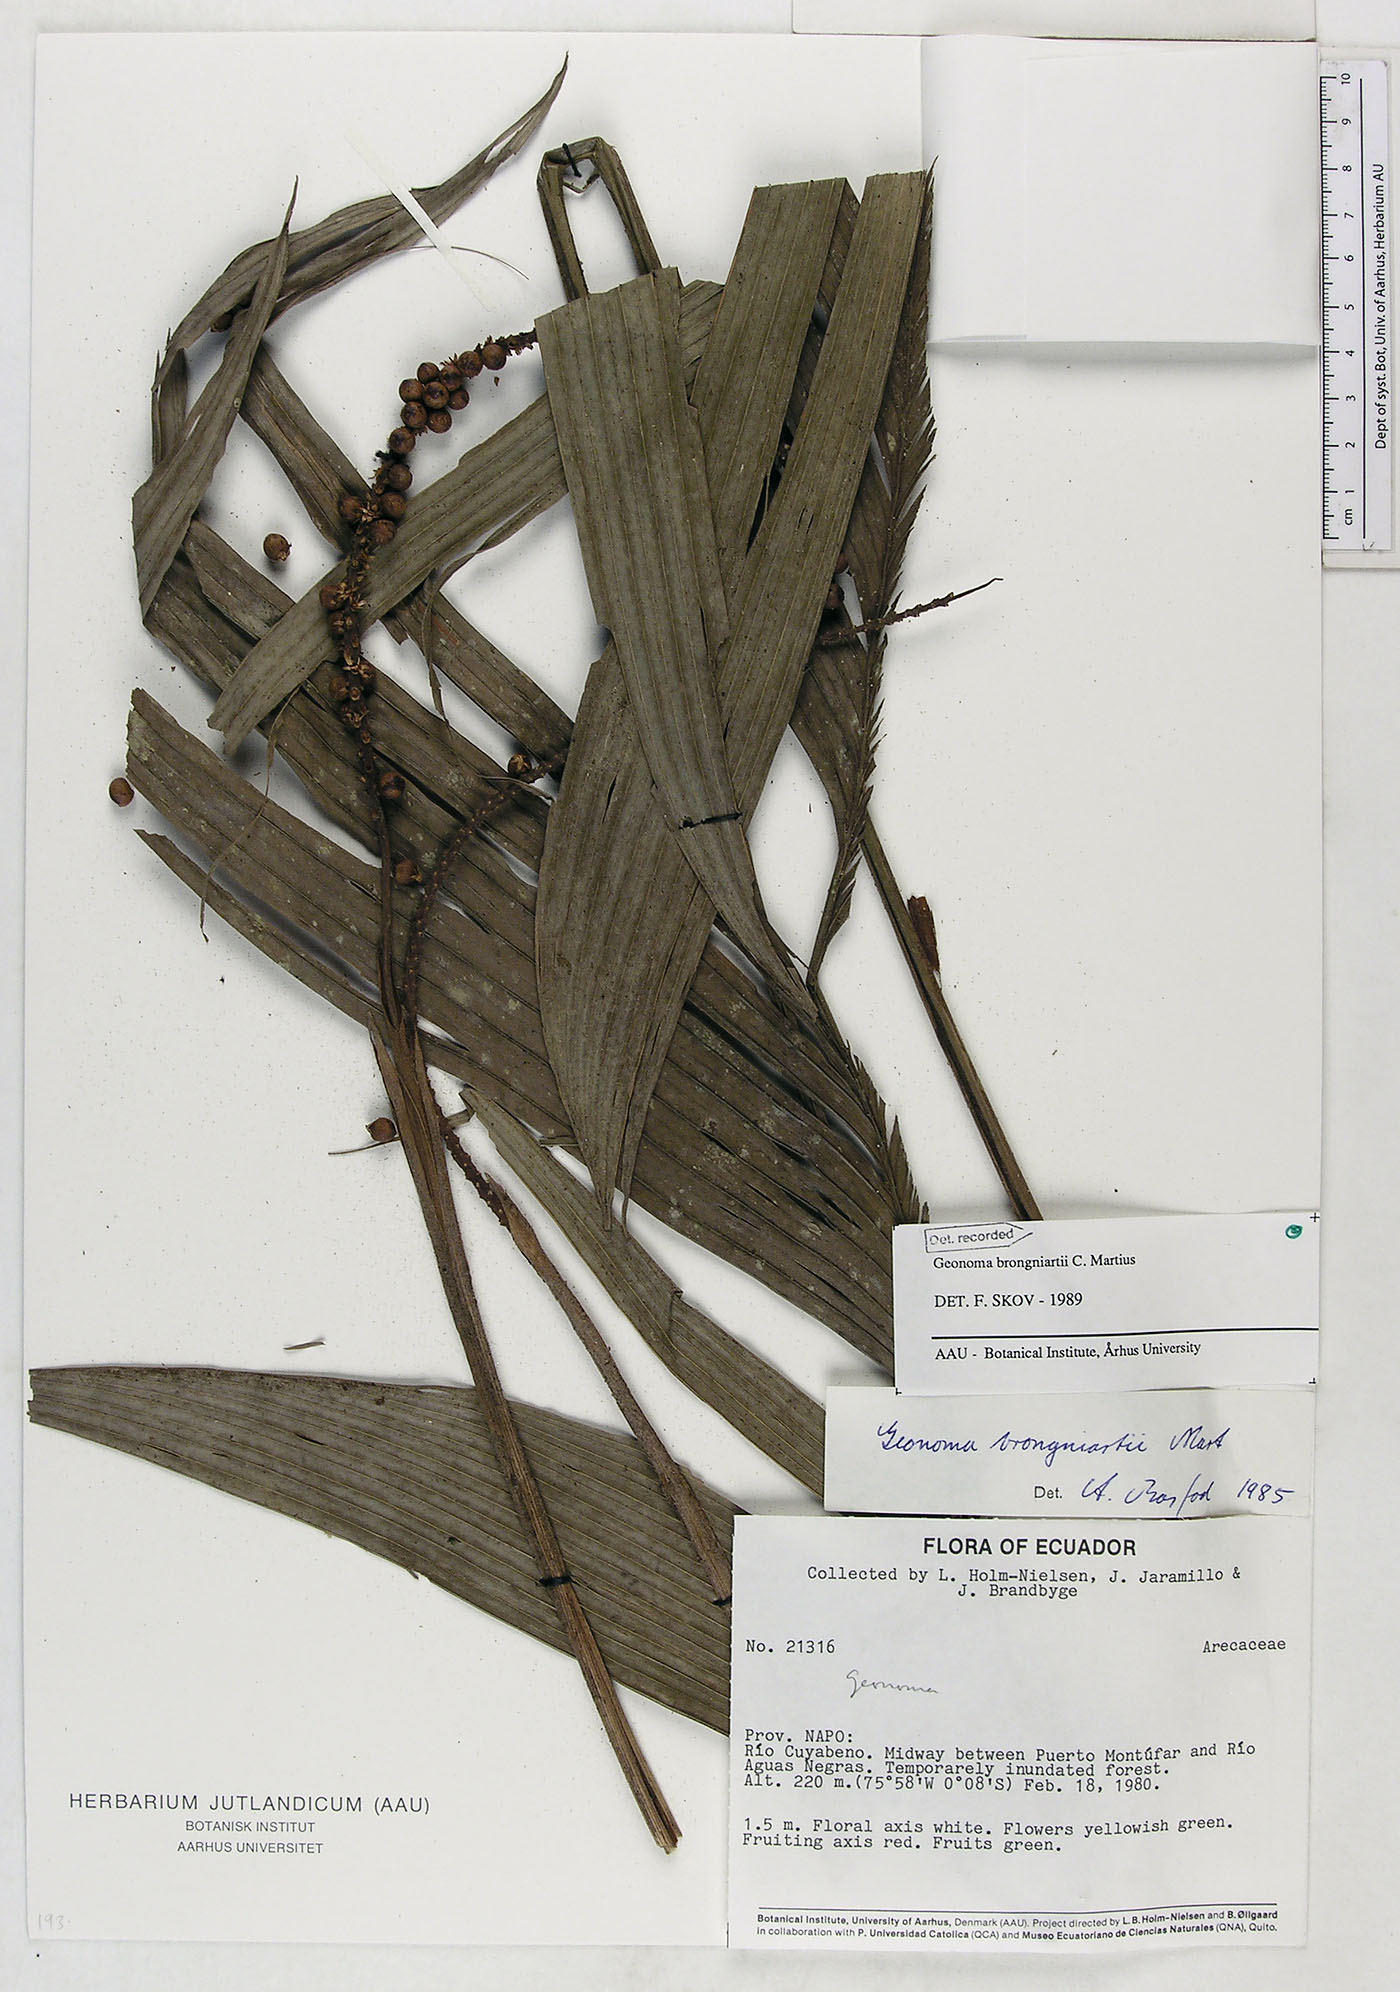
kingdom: Plantae
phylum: Tracheophyta
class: Liliopsida
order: Arecales
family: Arecaceae
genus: Geonoma
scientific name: Geonoma brongniartii
